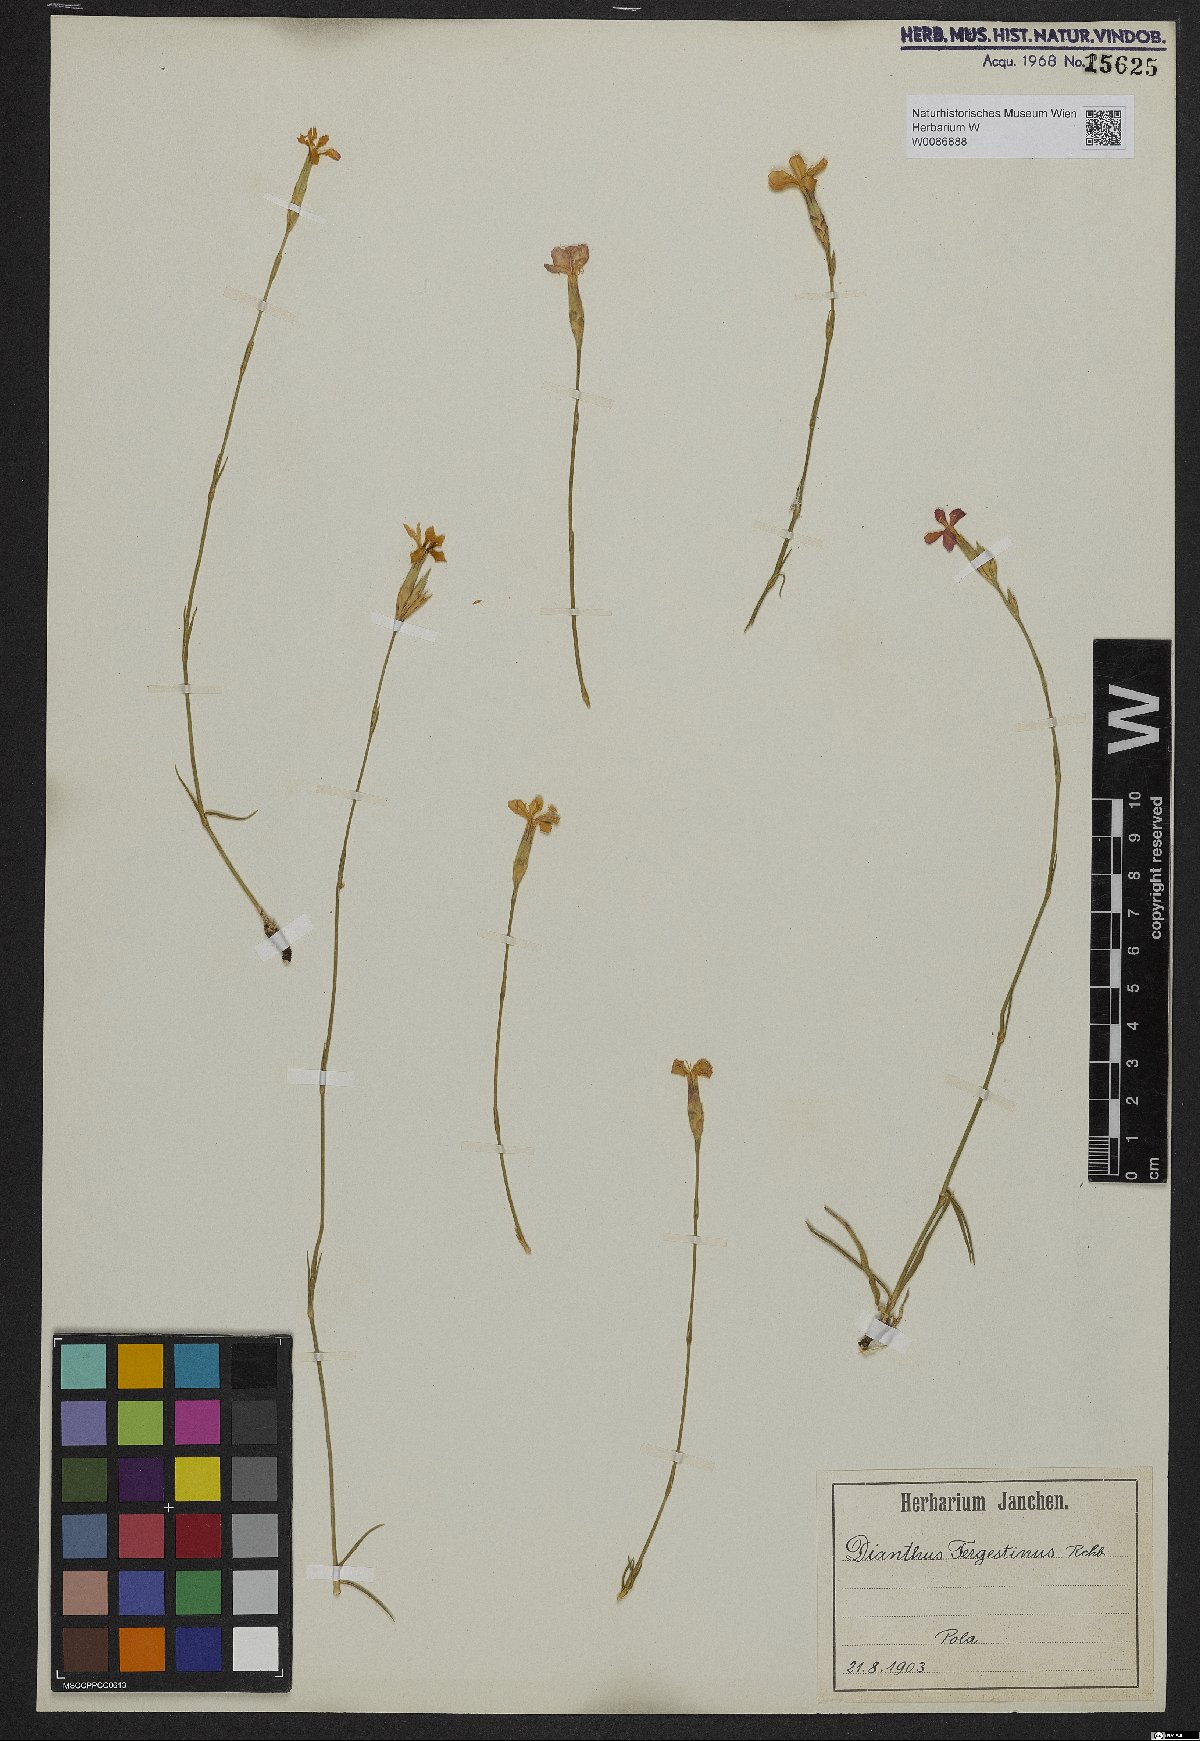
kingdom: Plantae
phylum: Tracheophyta
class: Magnoliopsida
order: Caryophyllales
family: Caryophyllaceae
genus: Dianthus
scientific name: Dianthus sylvestris
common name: Wood pink
